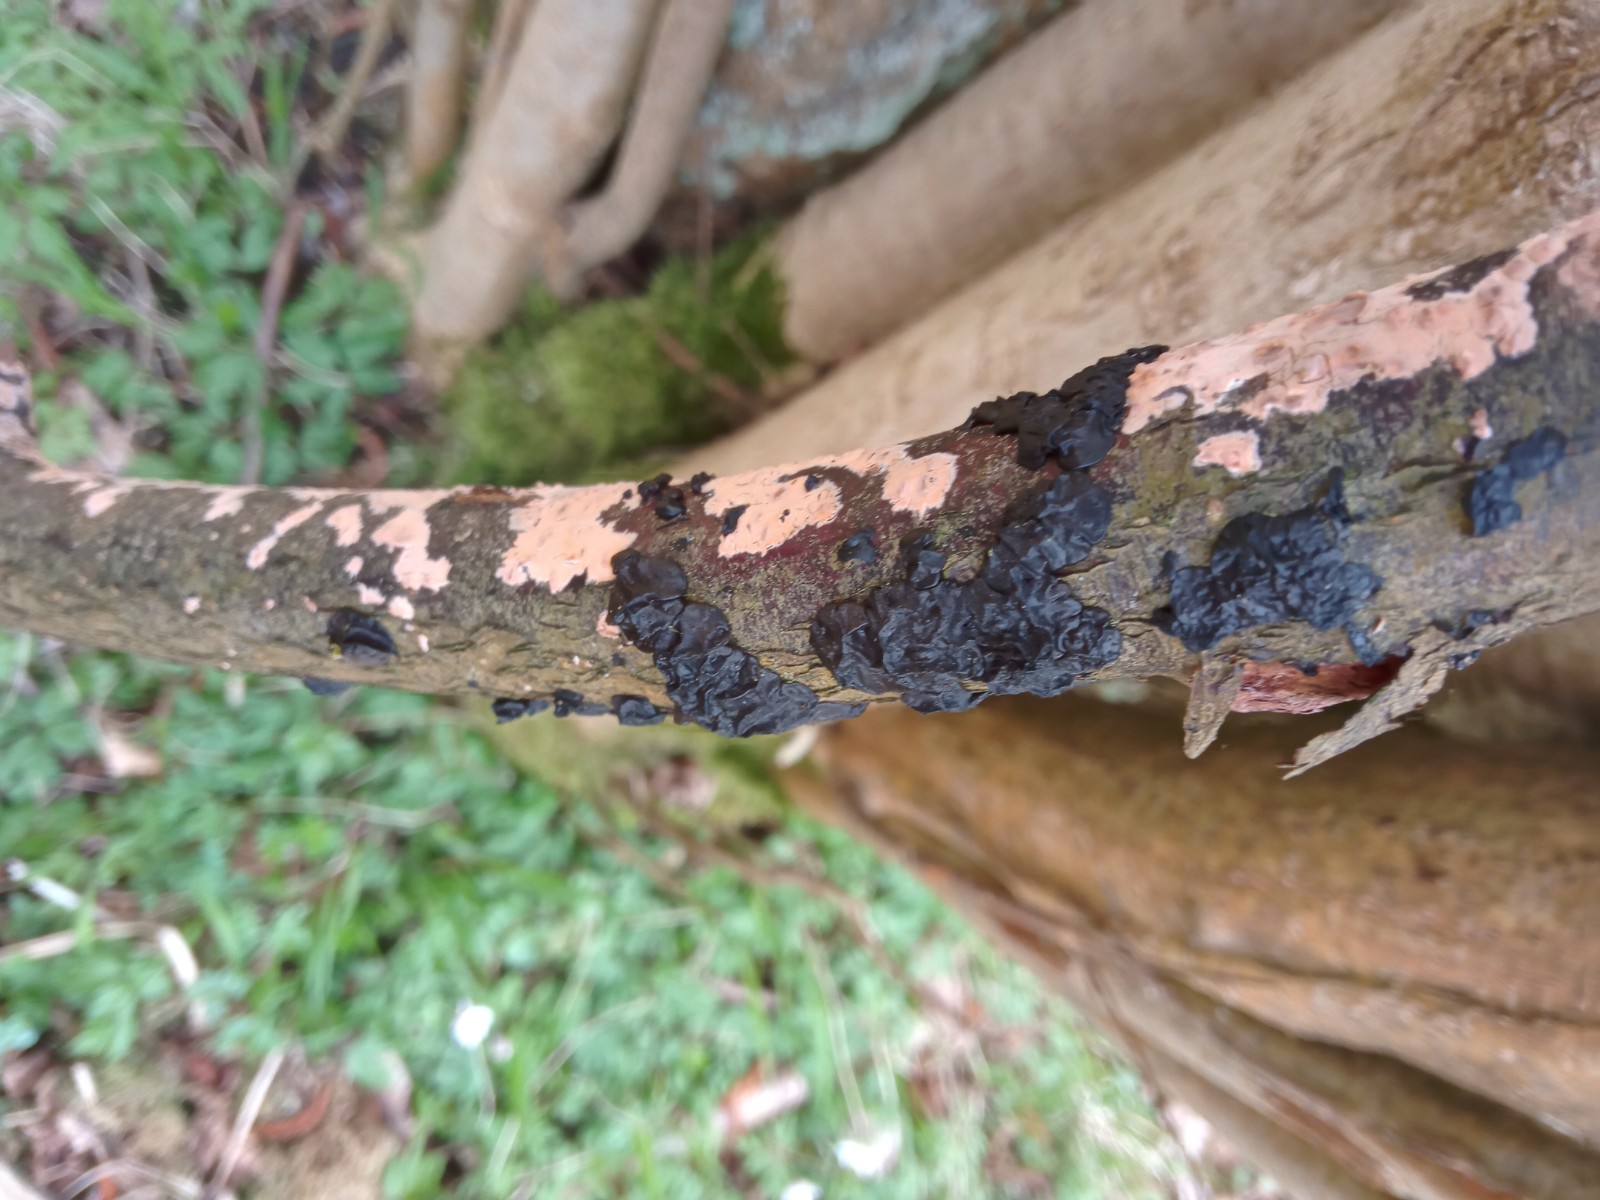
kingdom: Fungi
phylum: Basidiomycota
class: Agaricomycetes
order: Auriculariales
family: Auriculariaceae
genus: Exidia
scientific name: Exidia nigricans
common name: almindelig bævretop
